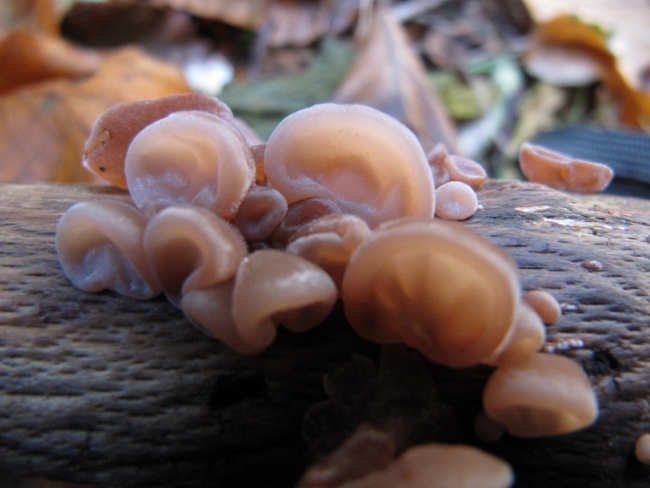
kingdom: Fungi
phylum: Basidiomycota
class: Agaricomycetes
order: Auriculariales
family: Auriculariaceae
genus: Auricularia
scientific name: Auricularia auricula-judae
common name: almindelig judasøre
